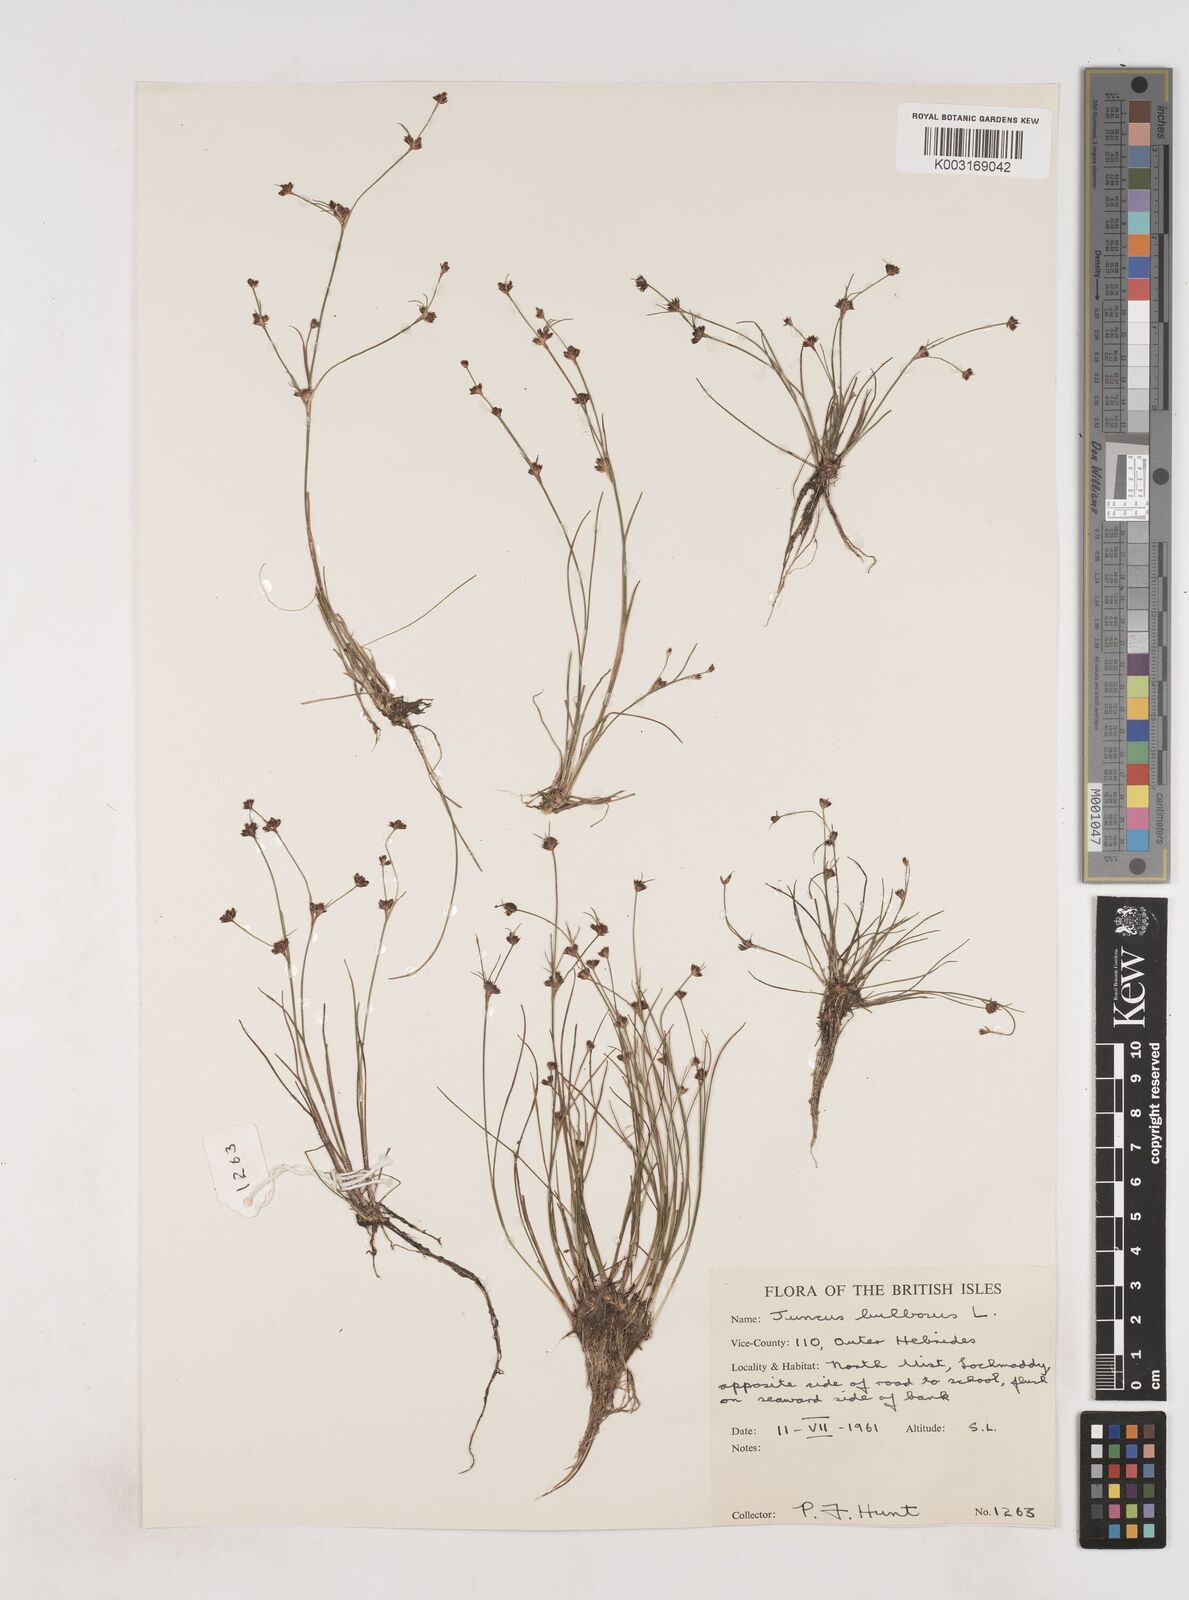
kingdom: Plantae
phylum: Tracheophyta
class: Liliopsida
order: Poales
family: Juncaceae
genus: Juncus
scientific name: Juncus bulbosus
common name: Bulbous rush
